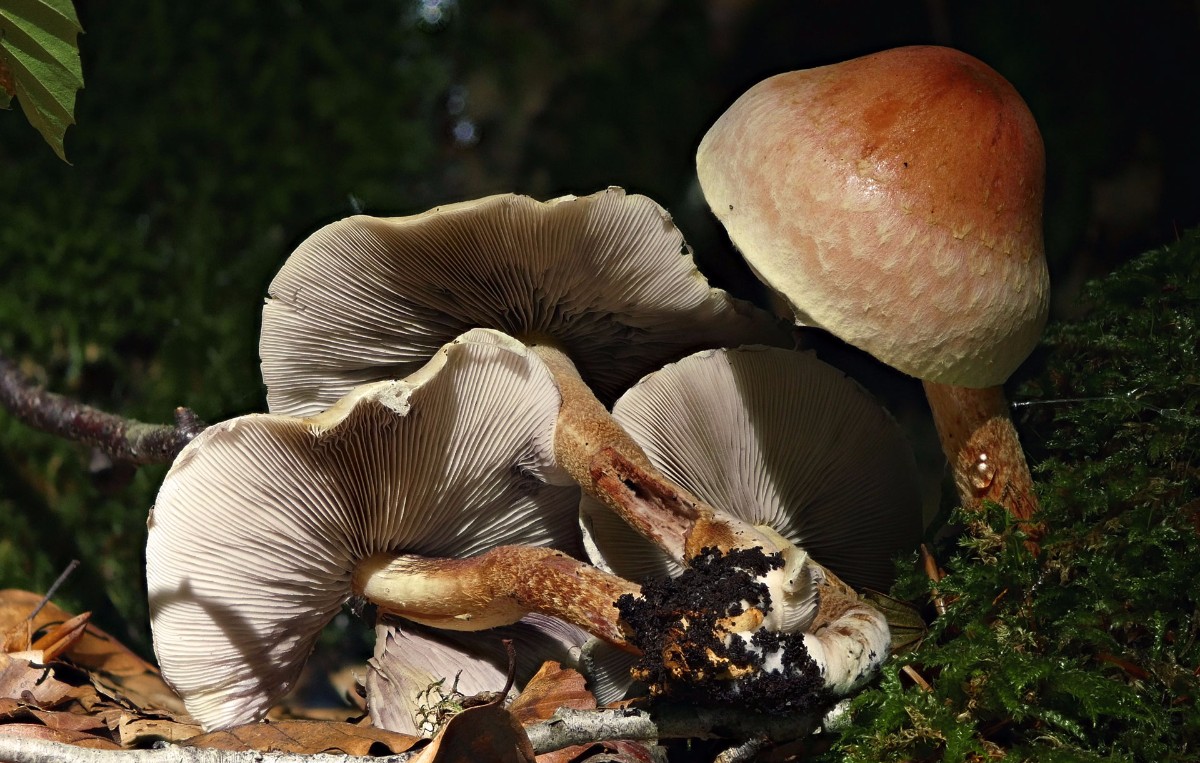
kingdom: Fungi
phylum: Basidiomycota
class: Agaricomycetes
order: Agaricales
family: Strophariaceae
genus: Hypholoma
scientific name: Hypholoma lateritium
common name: teglrød svovlhat
